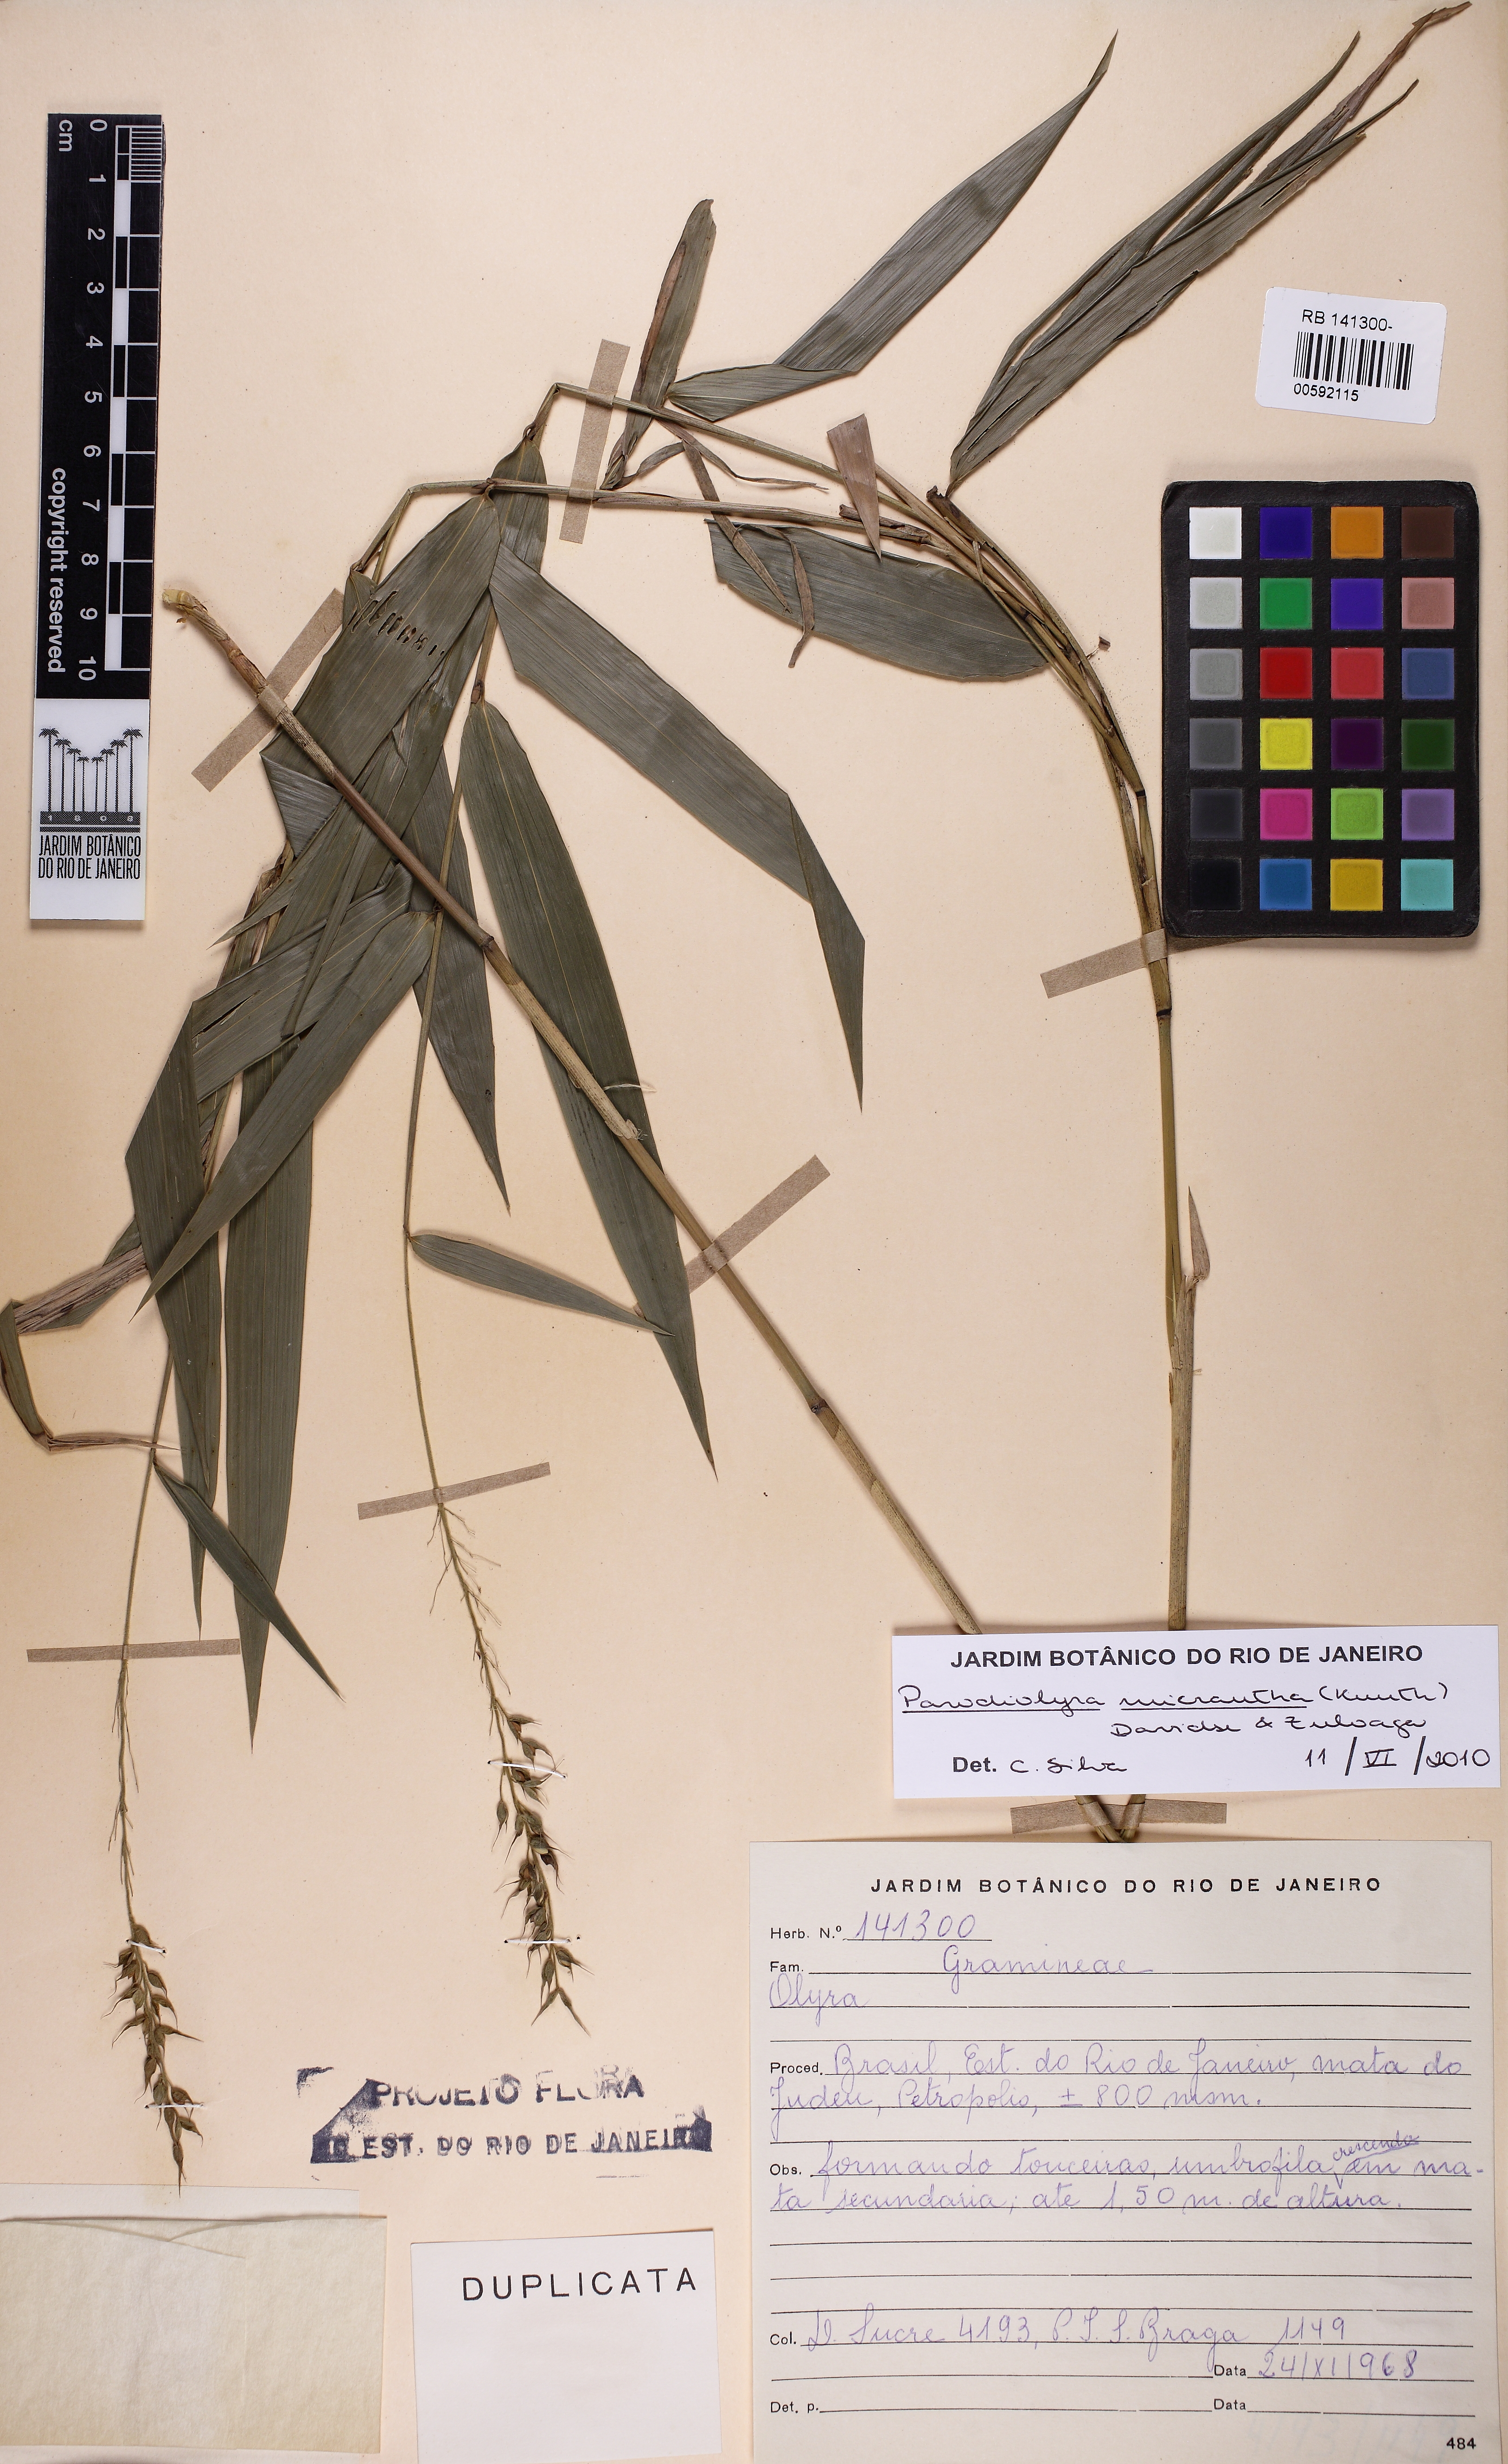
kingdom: Plantae
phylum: Tracheophyta
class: Liliopsida
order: Poales
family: Poaceae
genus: Taquara
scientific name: Taquara micrantha
